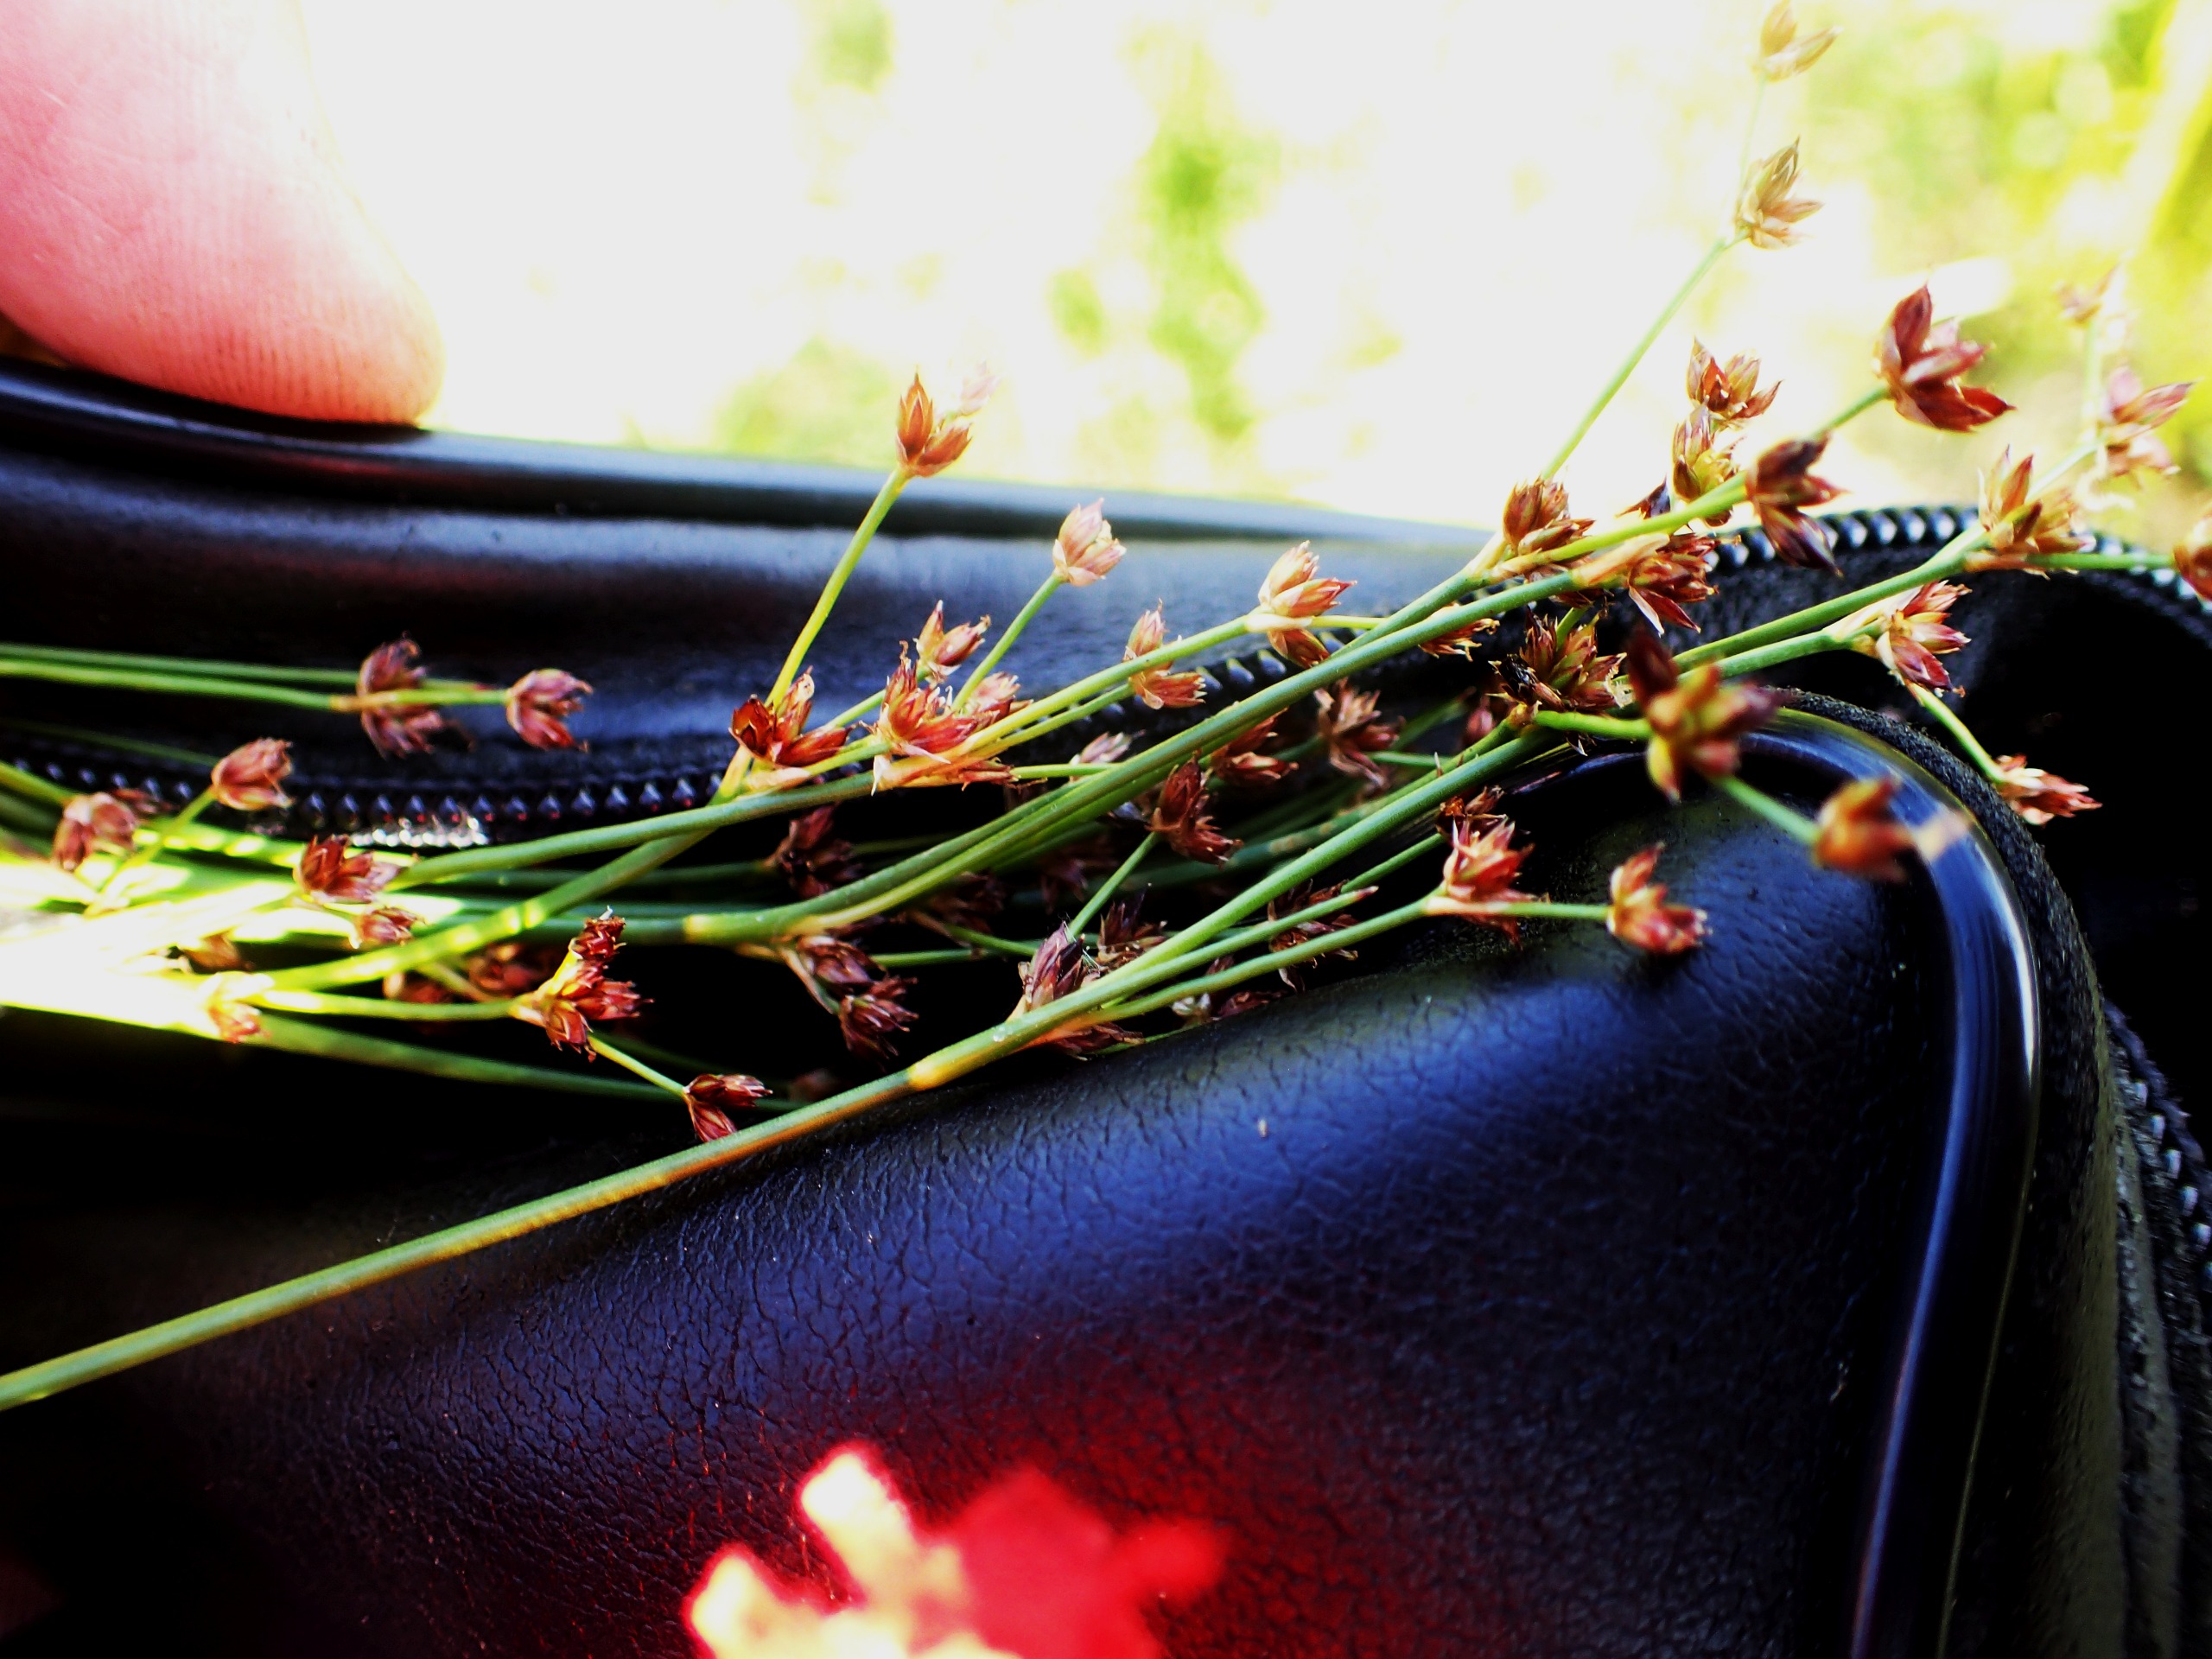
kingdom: Plantae
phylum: Tracheophyta
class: Liliopsida
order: Poales
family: Juncaceae
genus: Juncus
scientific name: Juncus articulatus
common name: Glanskapslet siv
